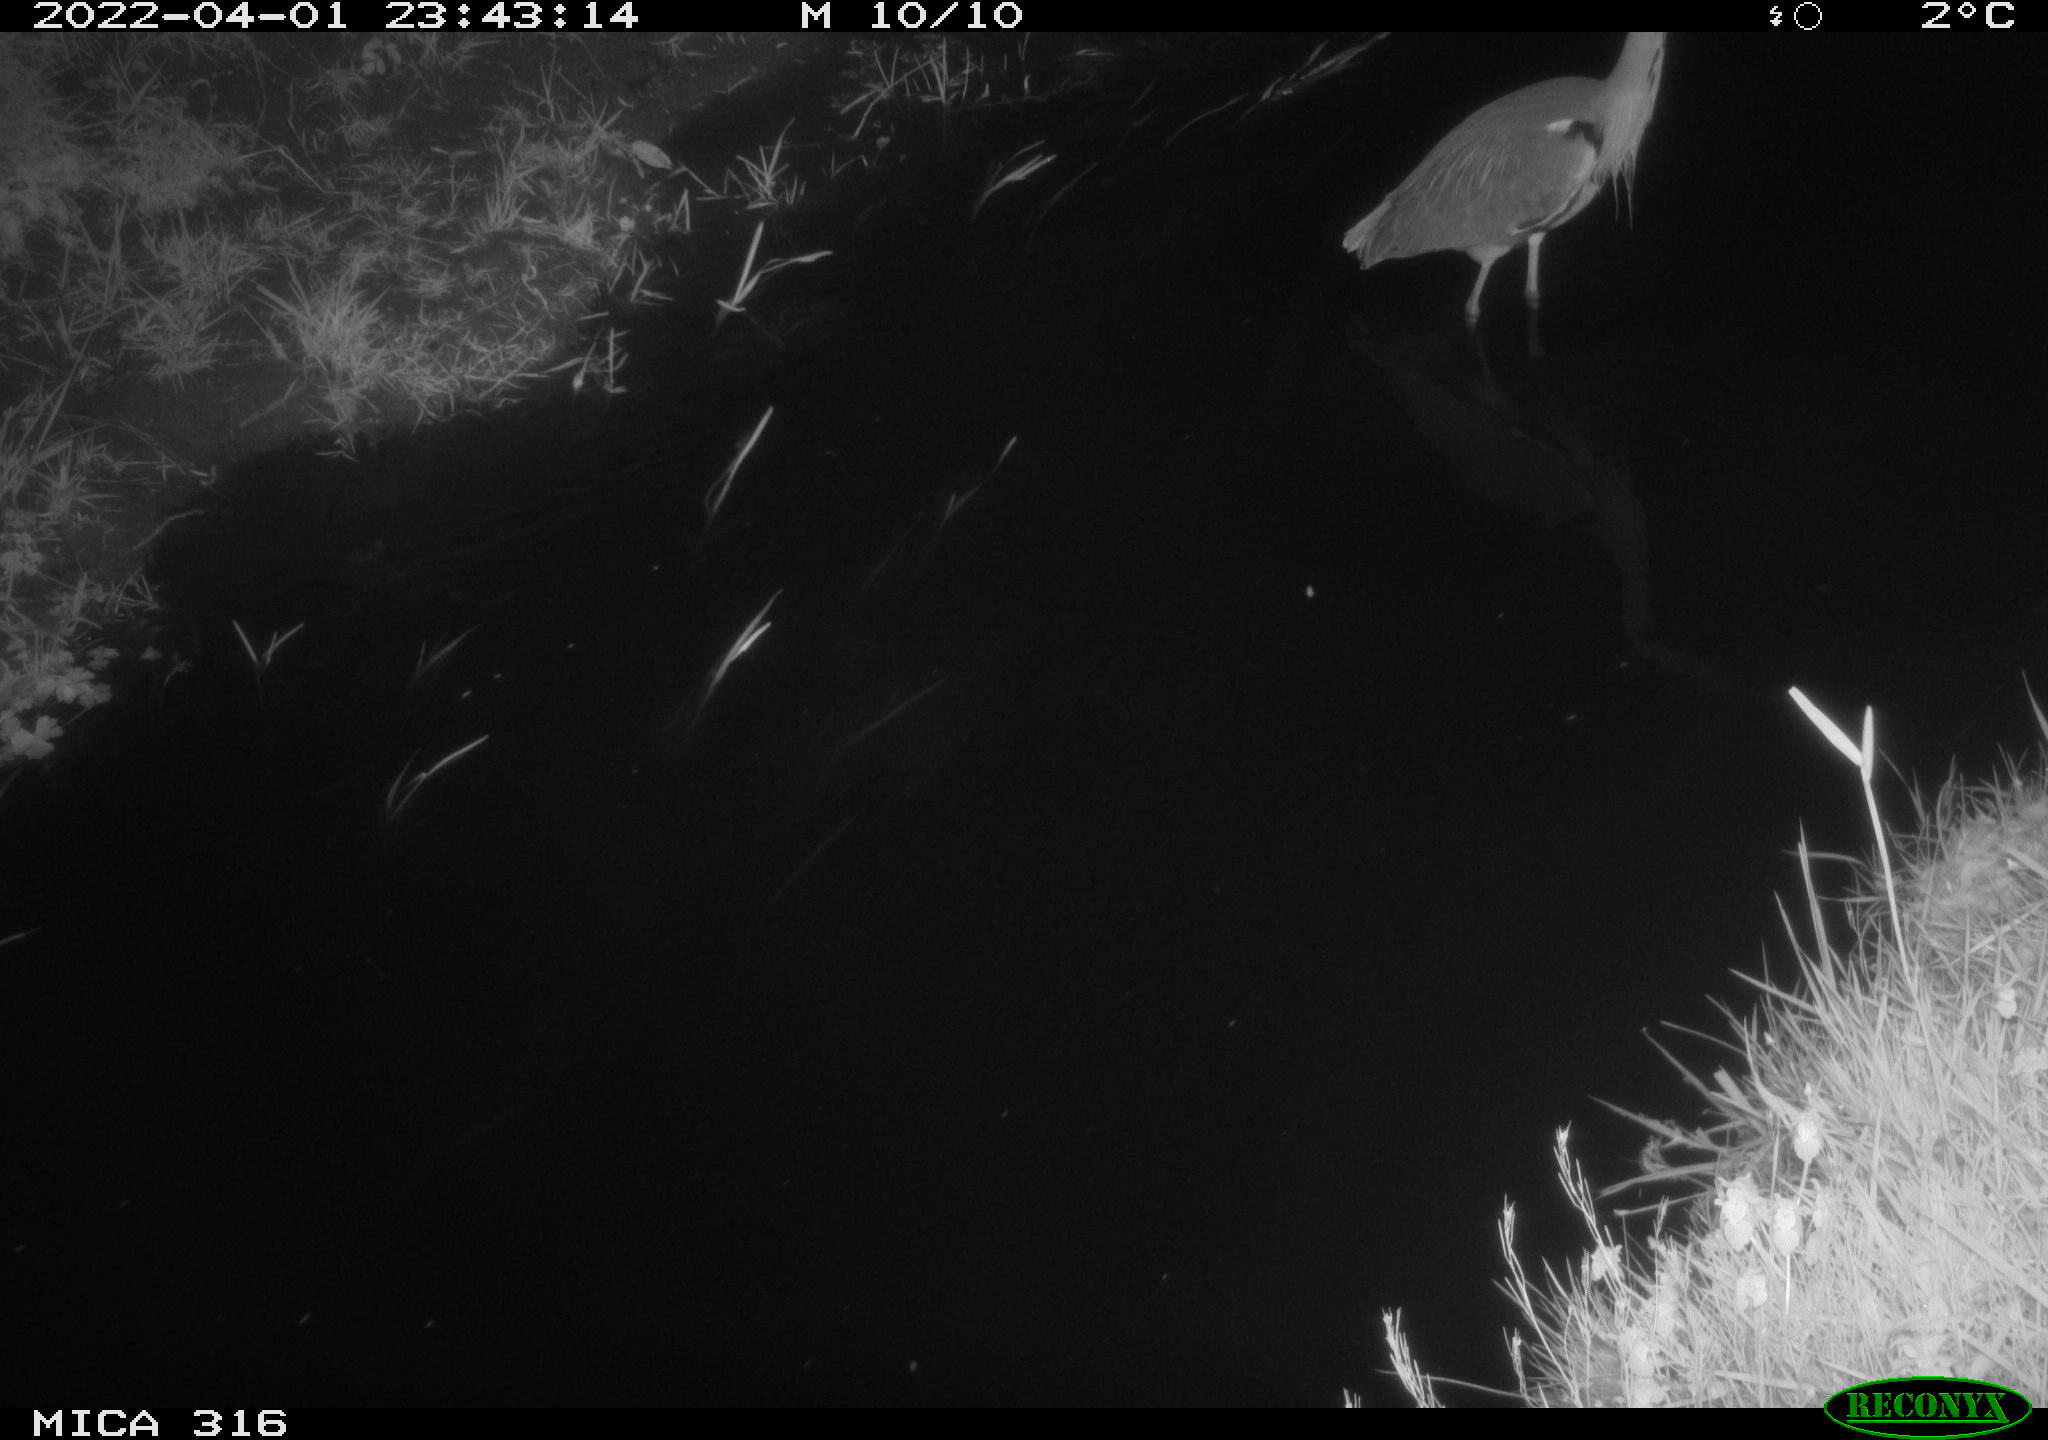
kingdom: Animalia
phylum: Chordata
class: Aves
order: Pelecaniformes
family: Ardeidae
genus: Ardea
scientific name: Ardea cinerea
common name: Grey heron
